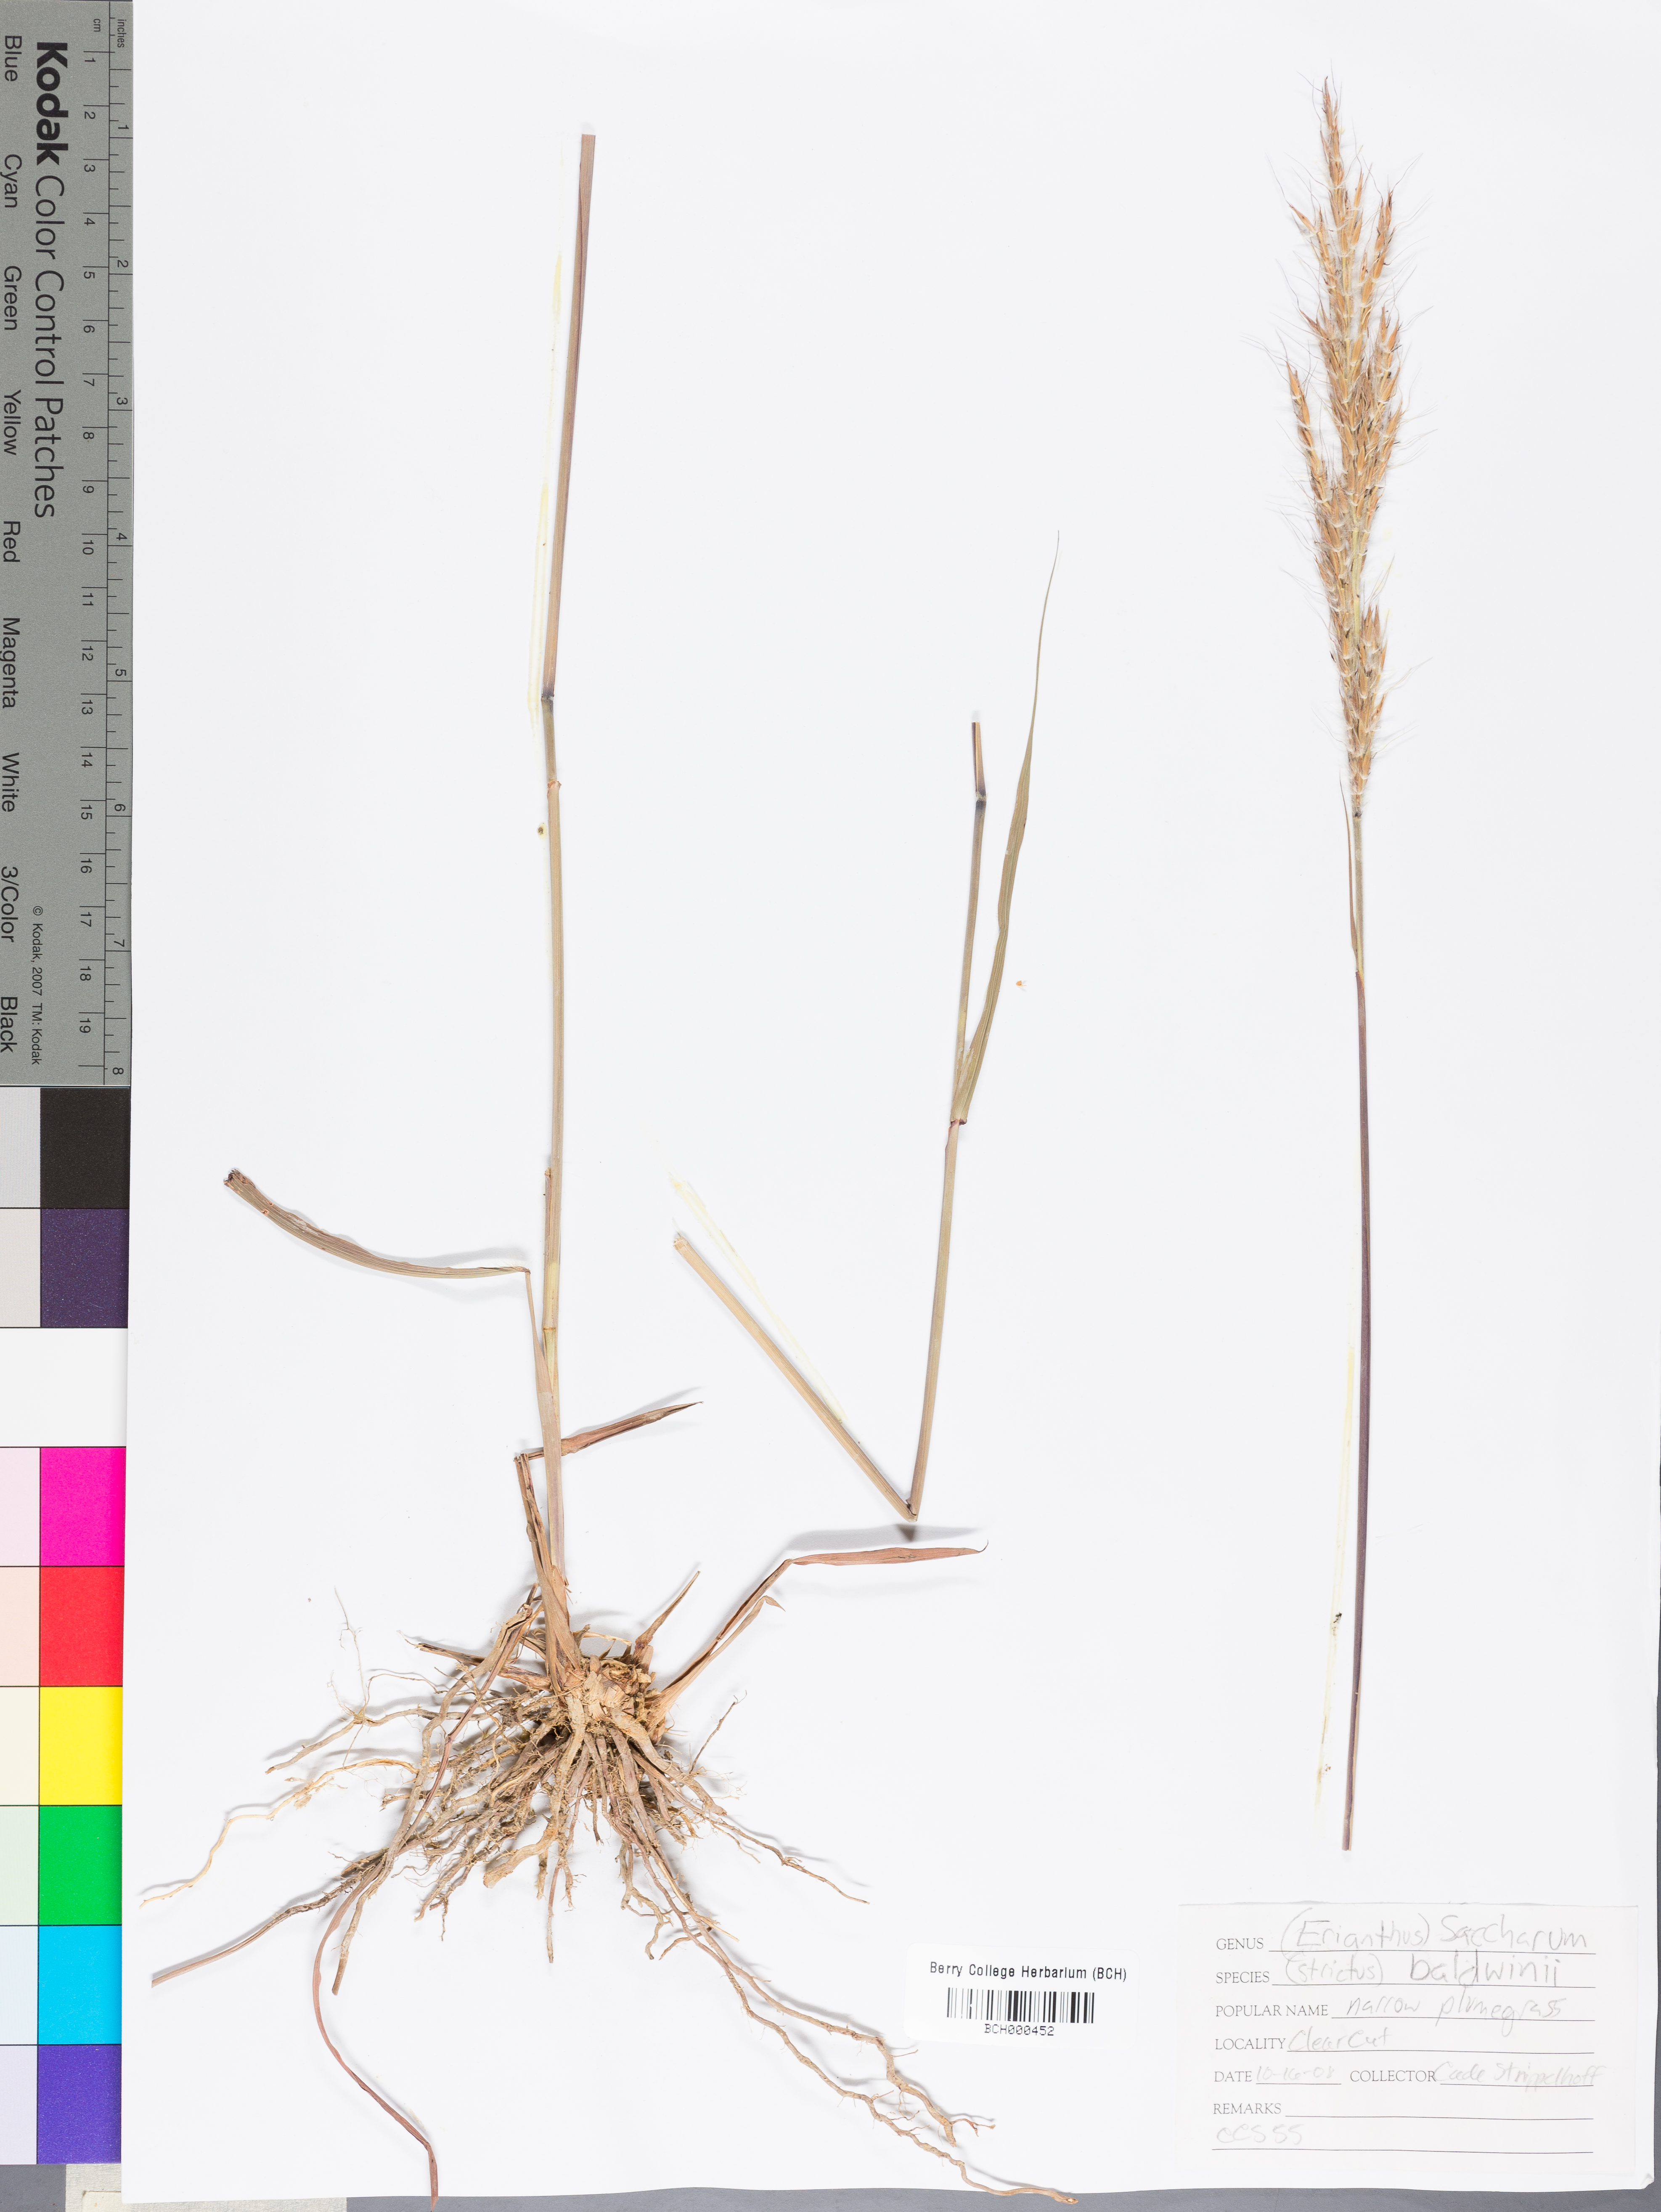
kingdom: Plantae
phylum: Tracheophyta
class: Liliopsida
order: Poales
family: Poaceae
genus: Erianthus
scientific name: Erianthus strictus
